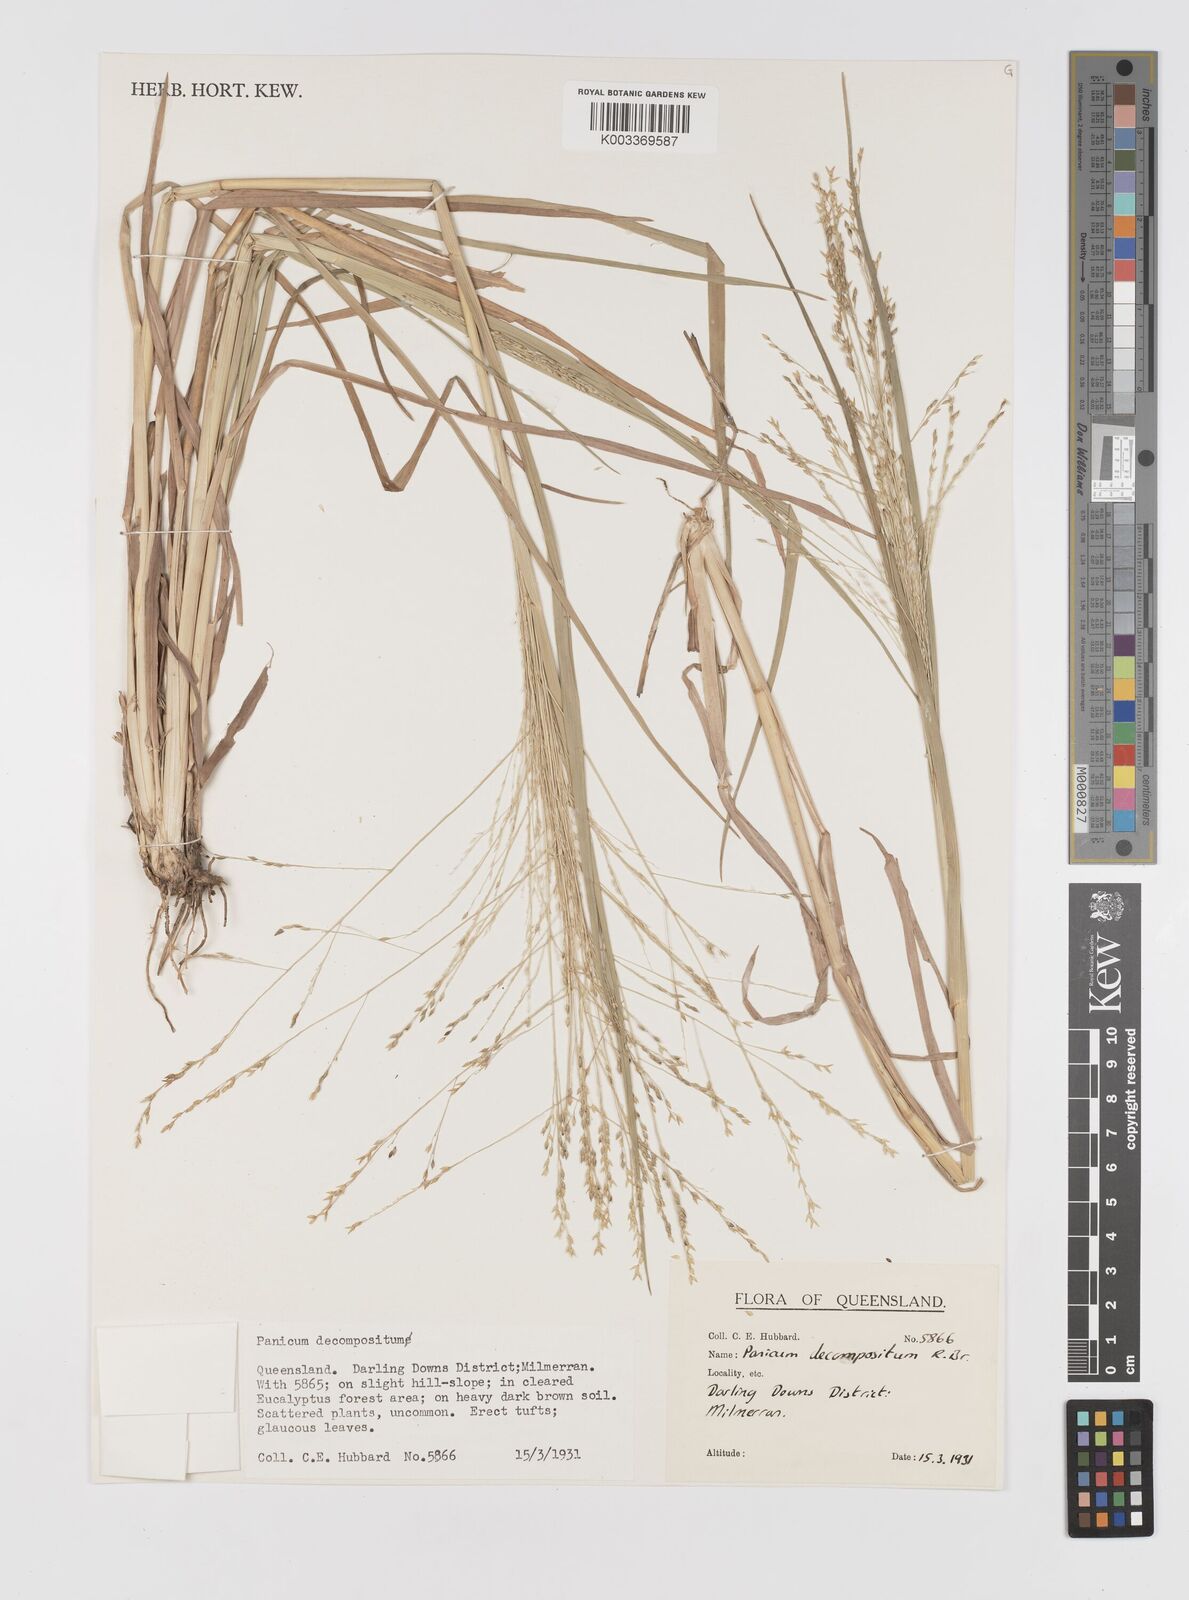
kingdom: Plantae
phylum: Tracheophyta
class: Liliopsida
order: Poales
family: Poaceae
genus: Panicum
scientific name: Panicum decompositum
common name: Australian millet
